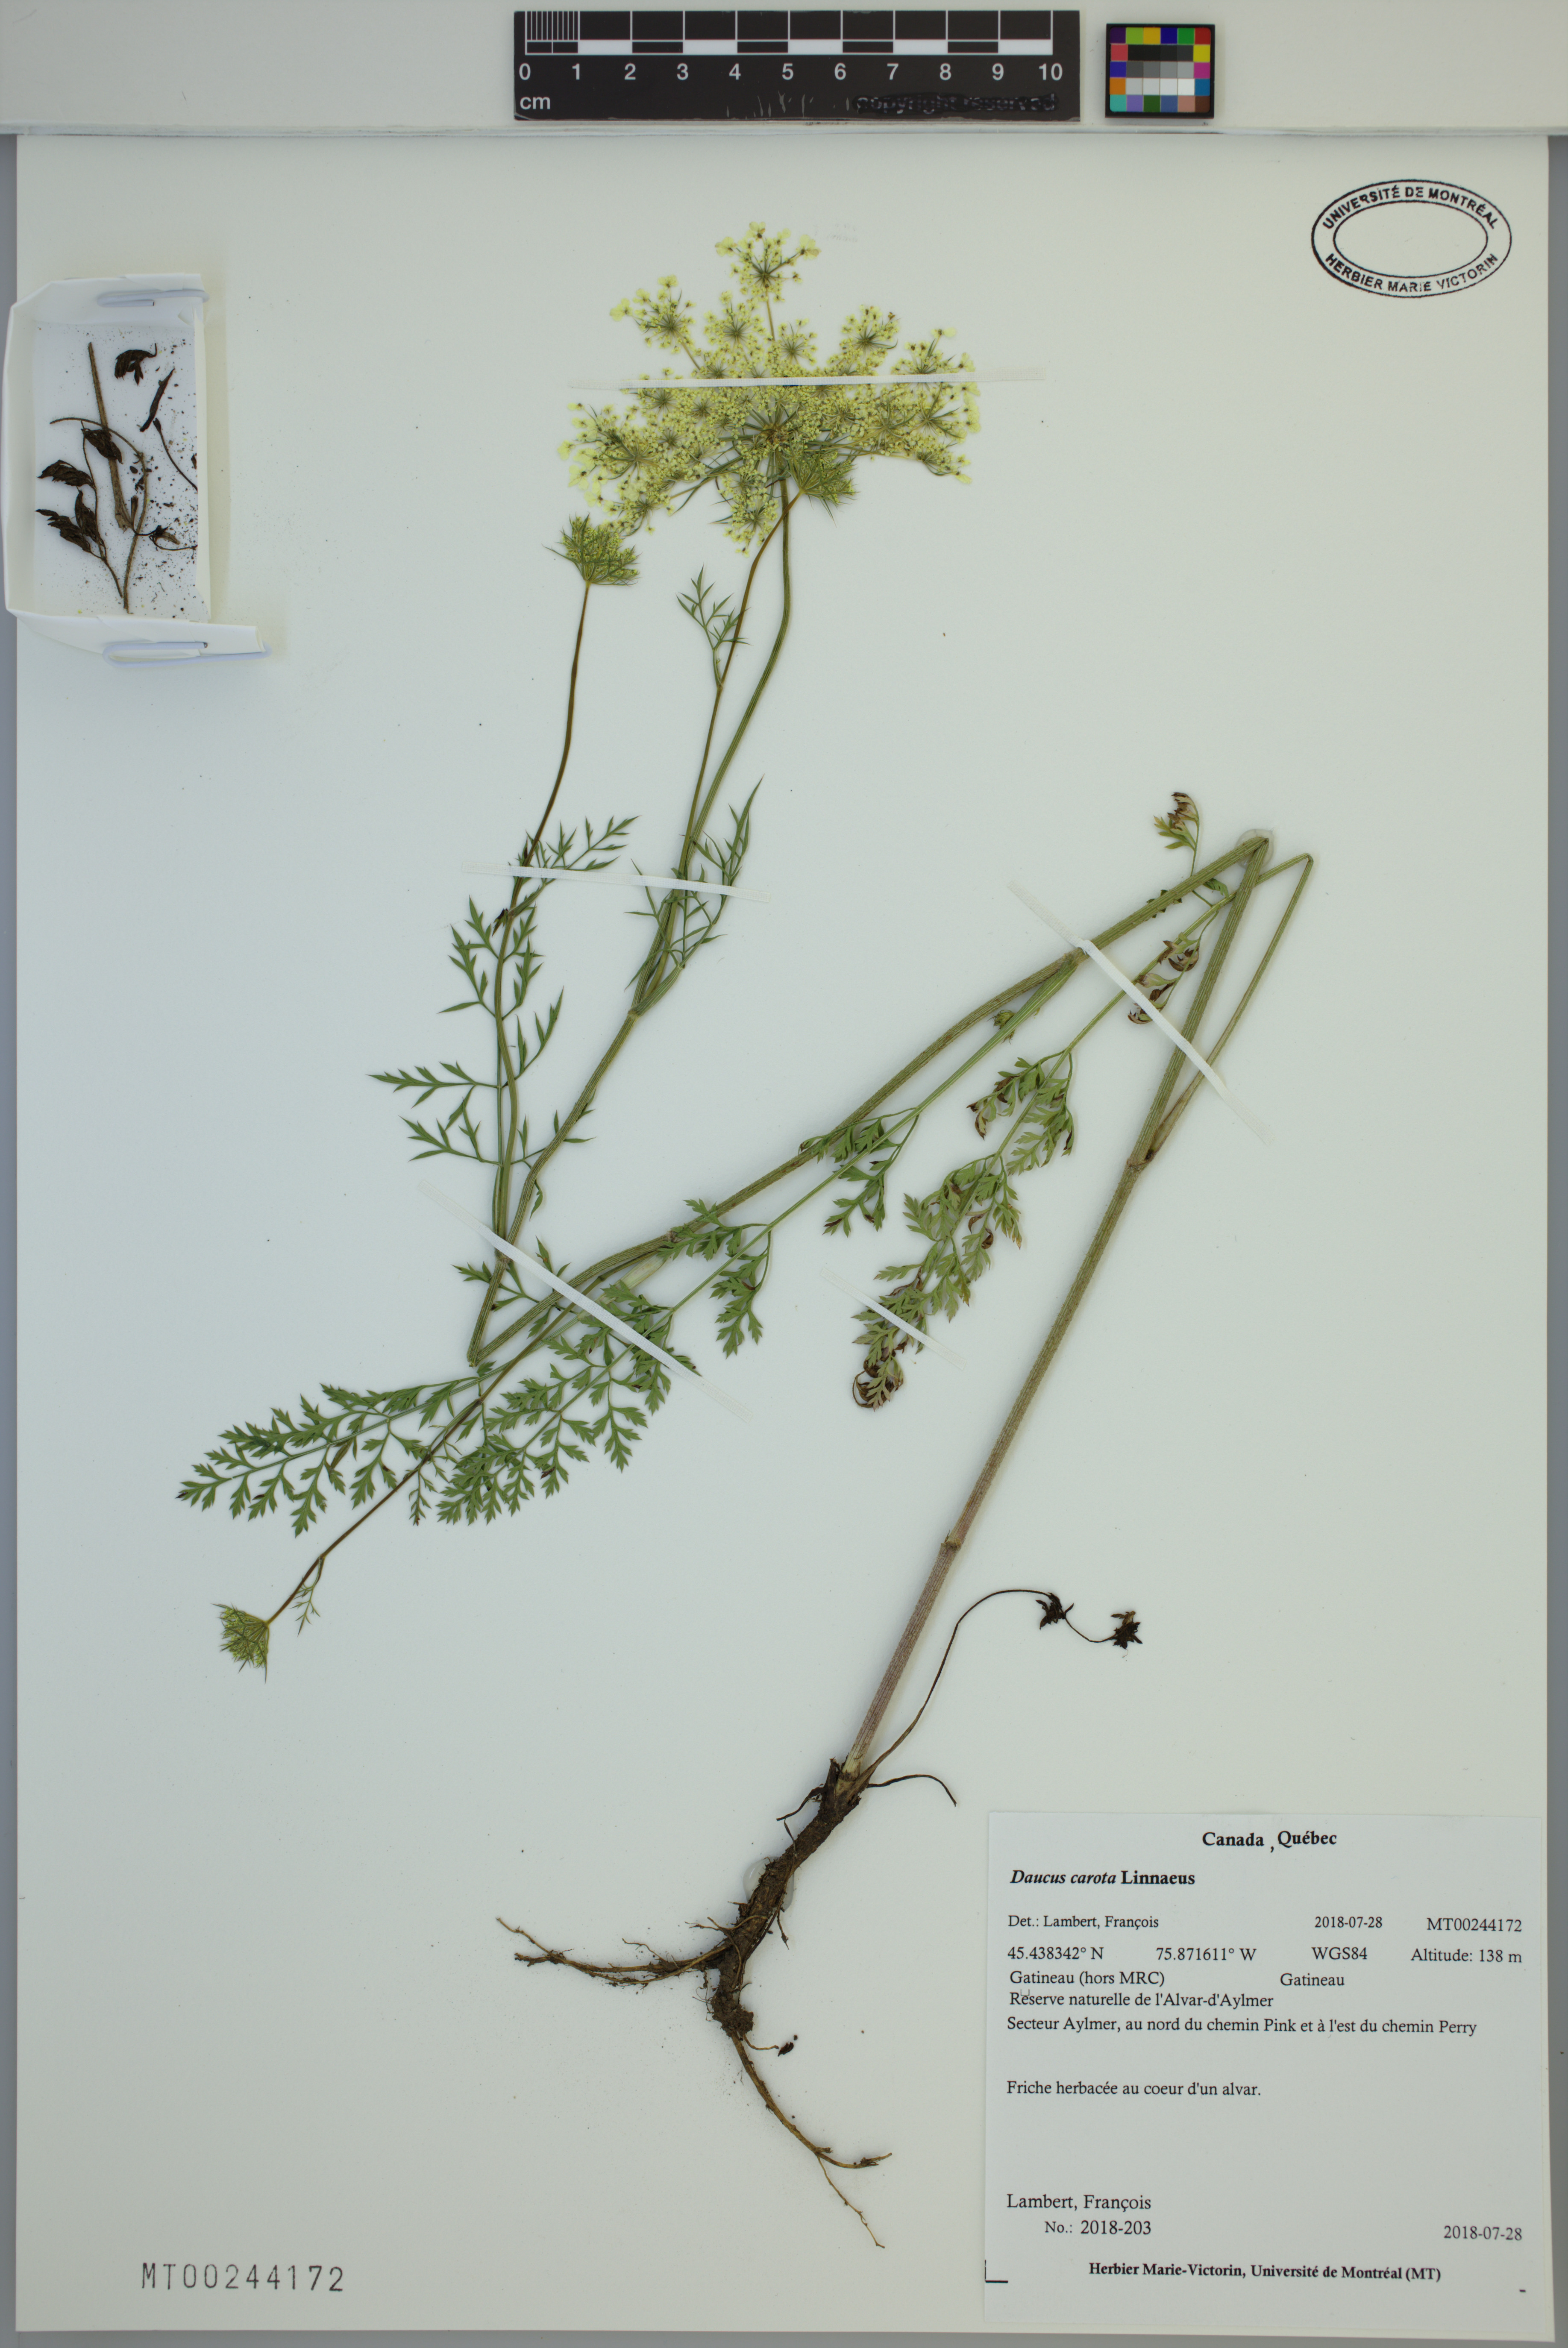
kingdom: Plantae
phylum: Tracheophyta
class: Magnoliopsida
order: Apiales
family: Apiaceae
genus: Daucus
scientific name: Daucus carota
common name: Wild carrot
